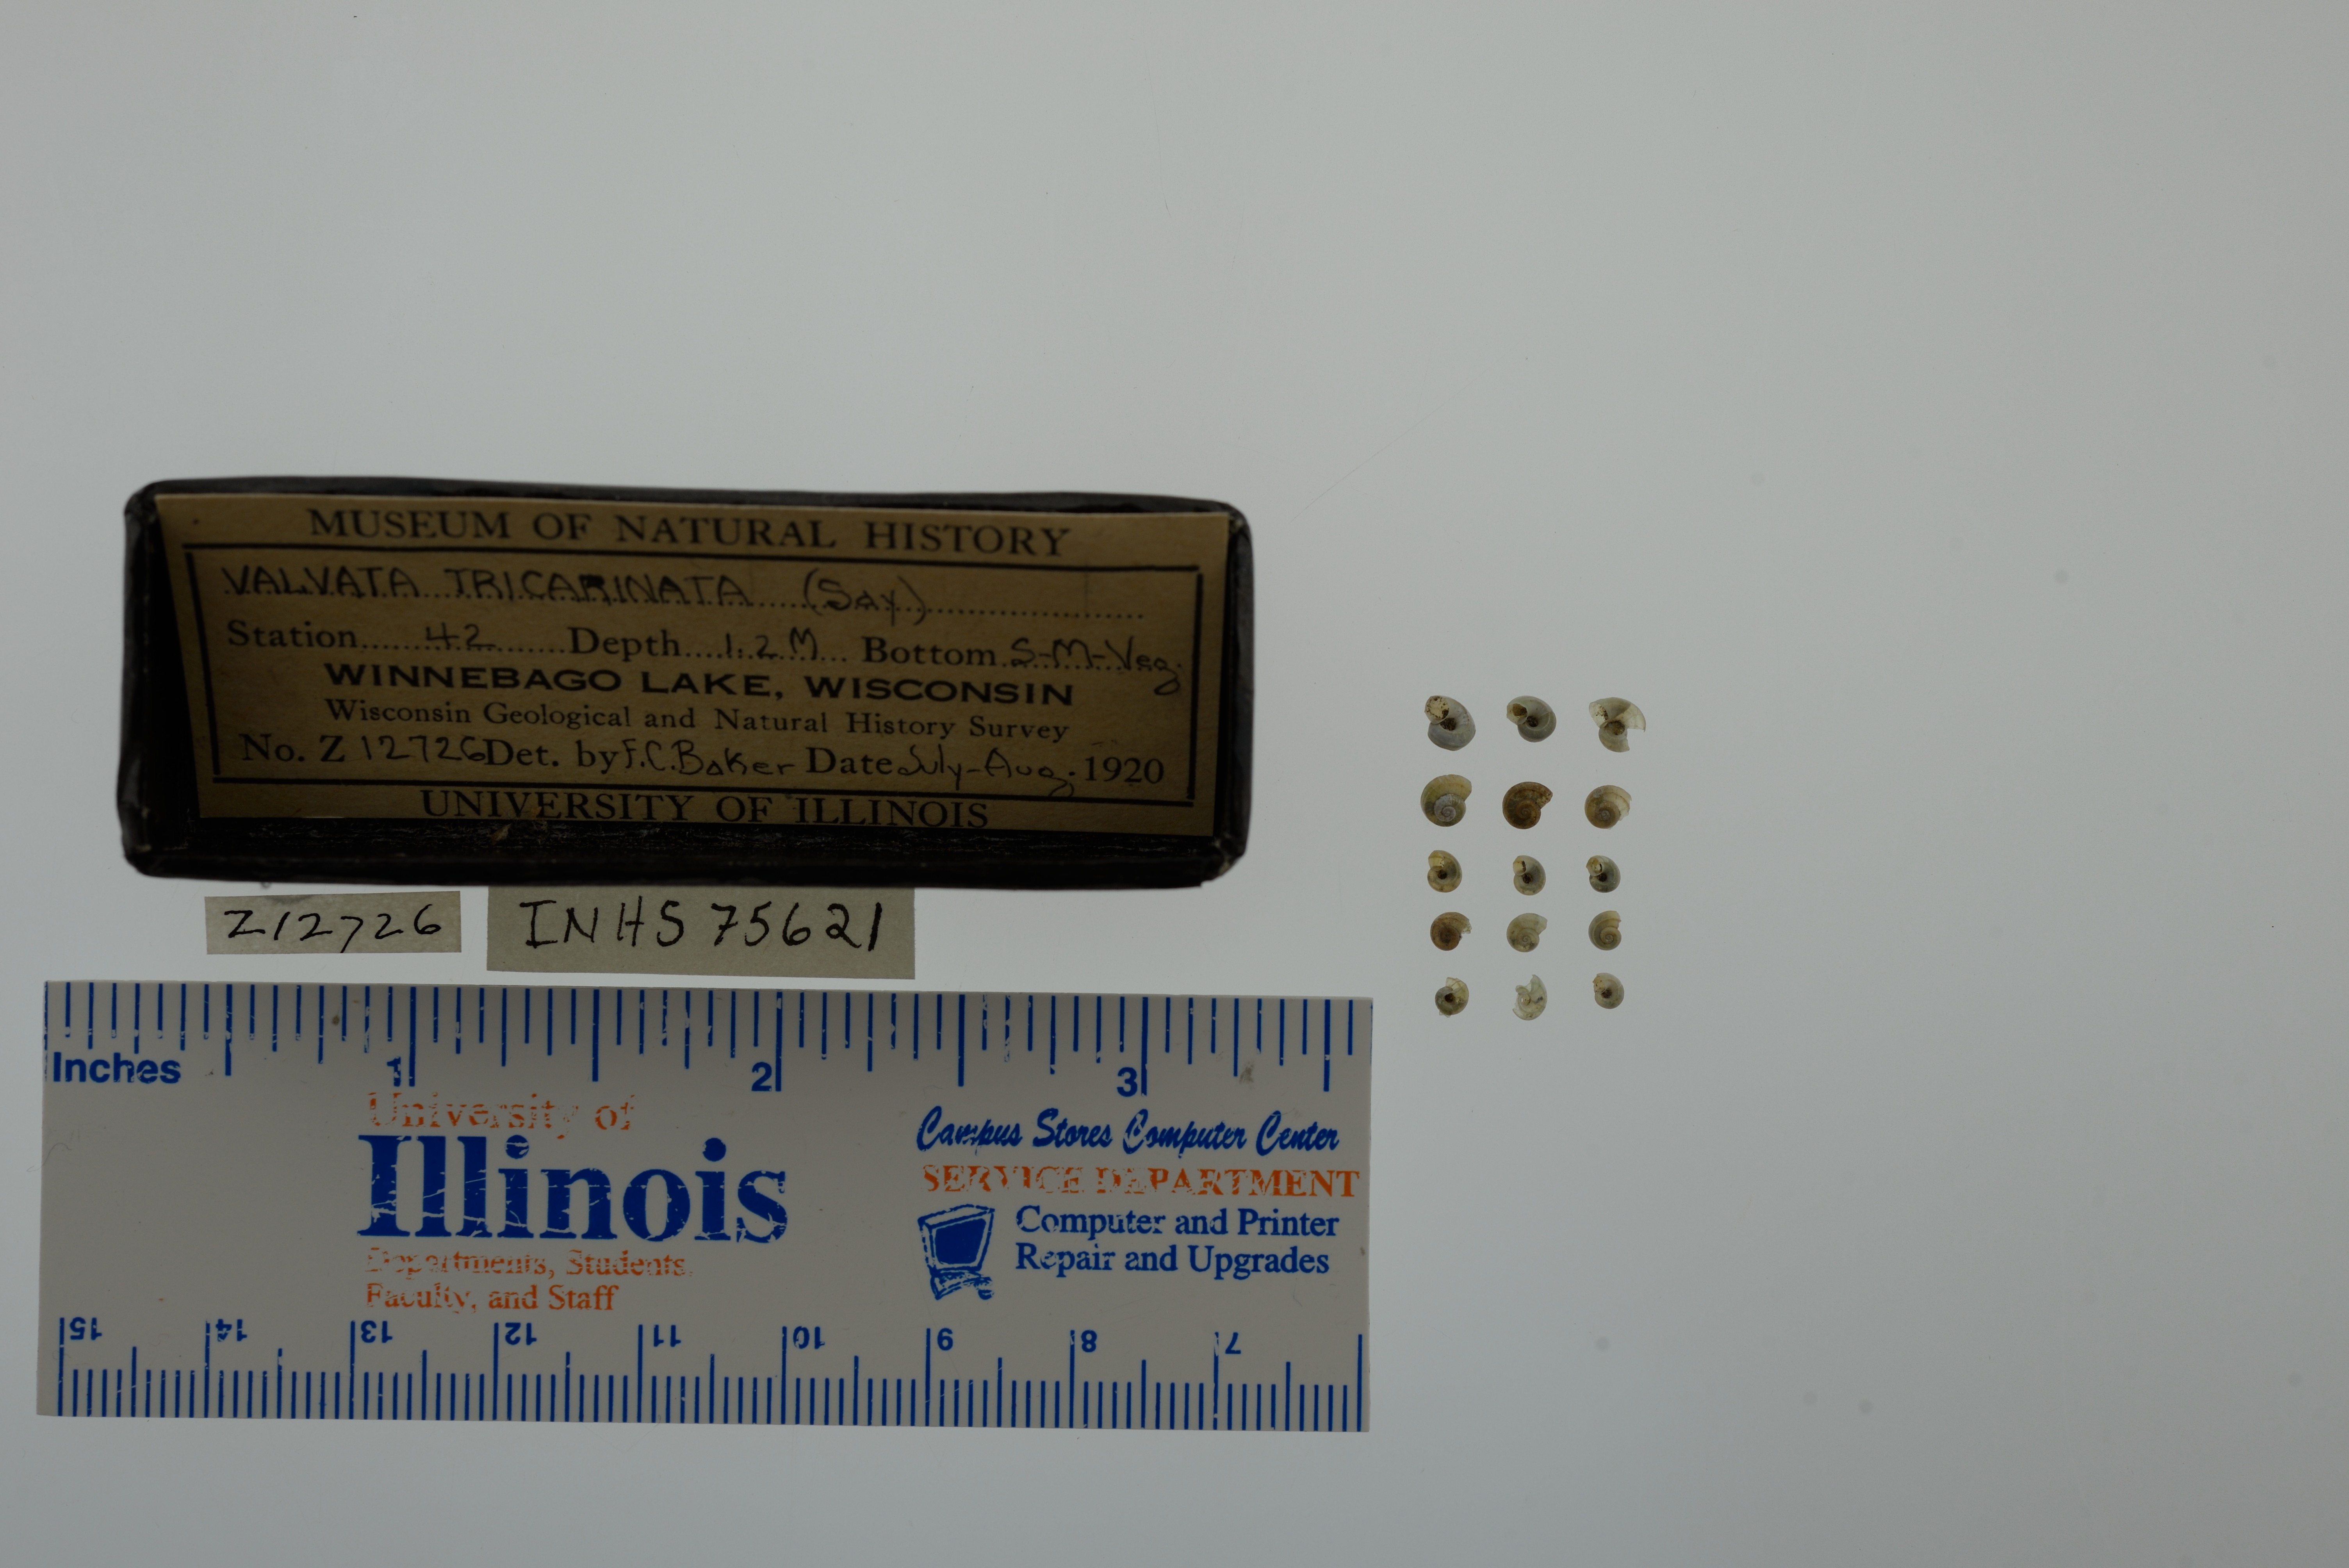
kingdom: Animalia
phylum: Mollusca
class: Gastropoda
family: Valvatidae
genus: Valvata
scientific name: Valvata tricarinata
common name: Three-ridge valvata
